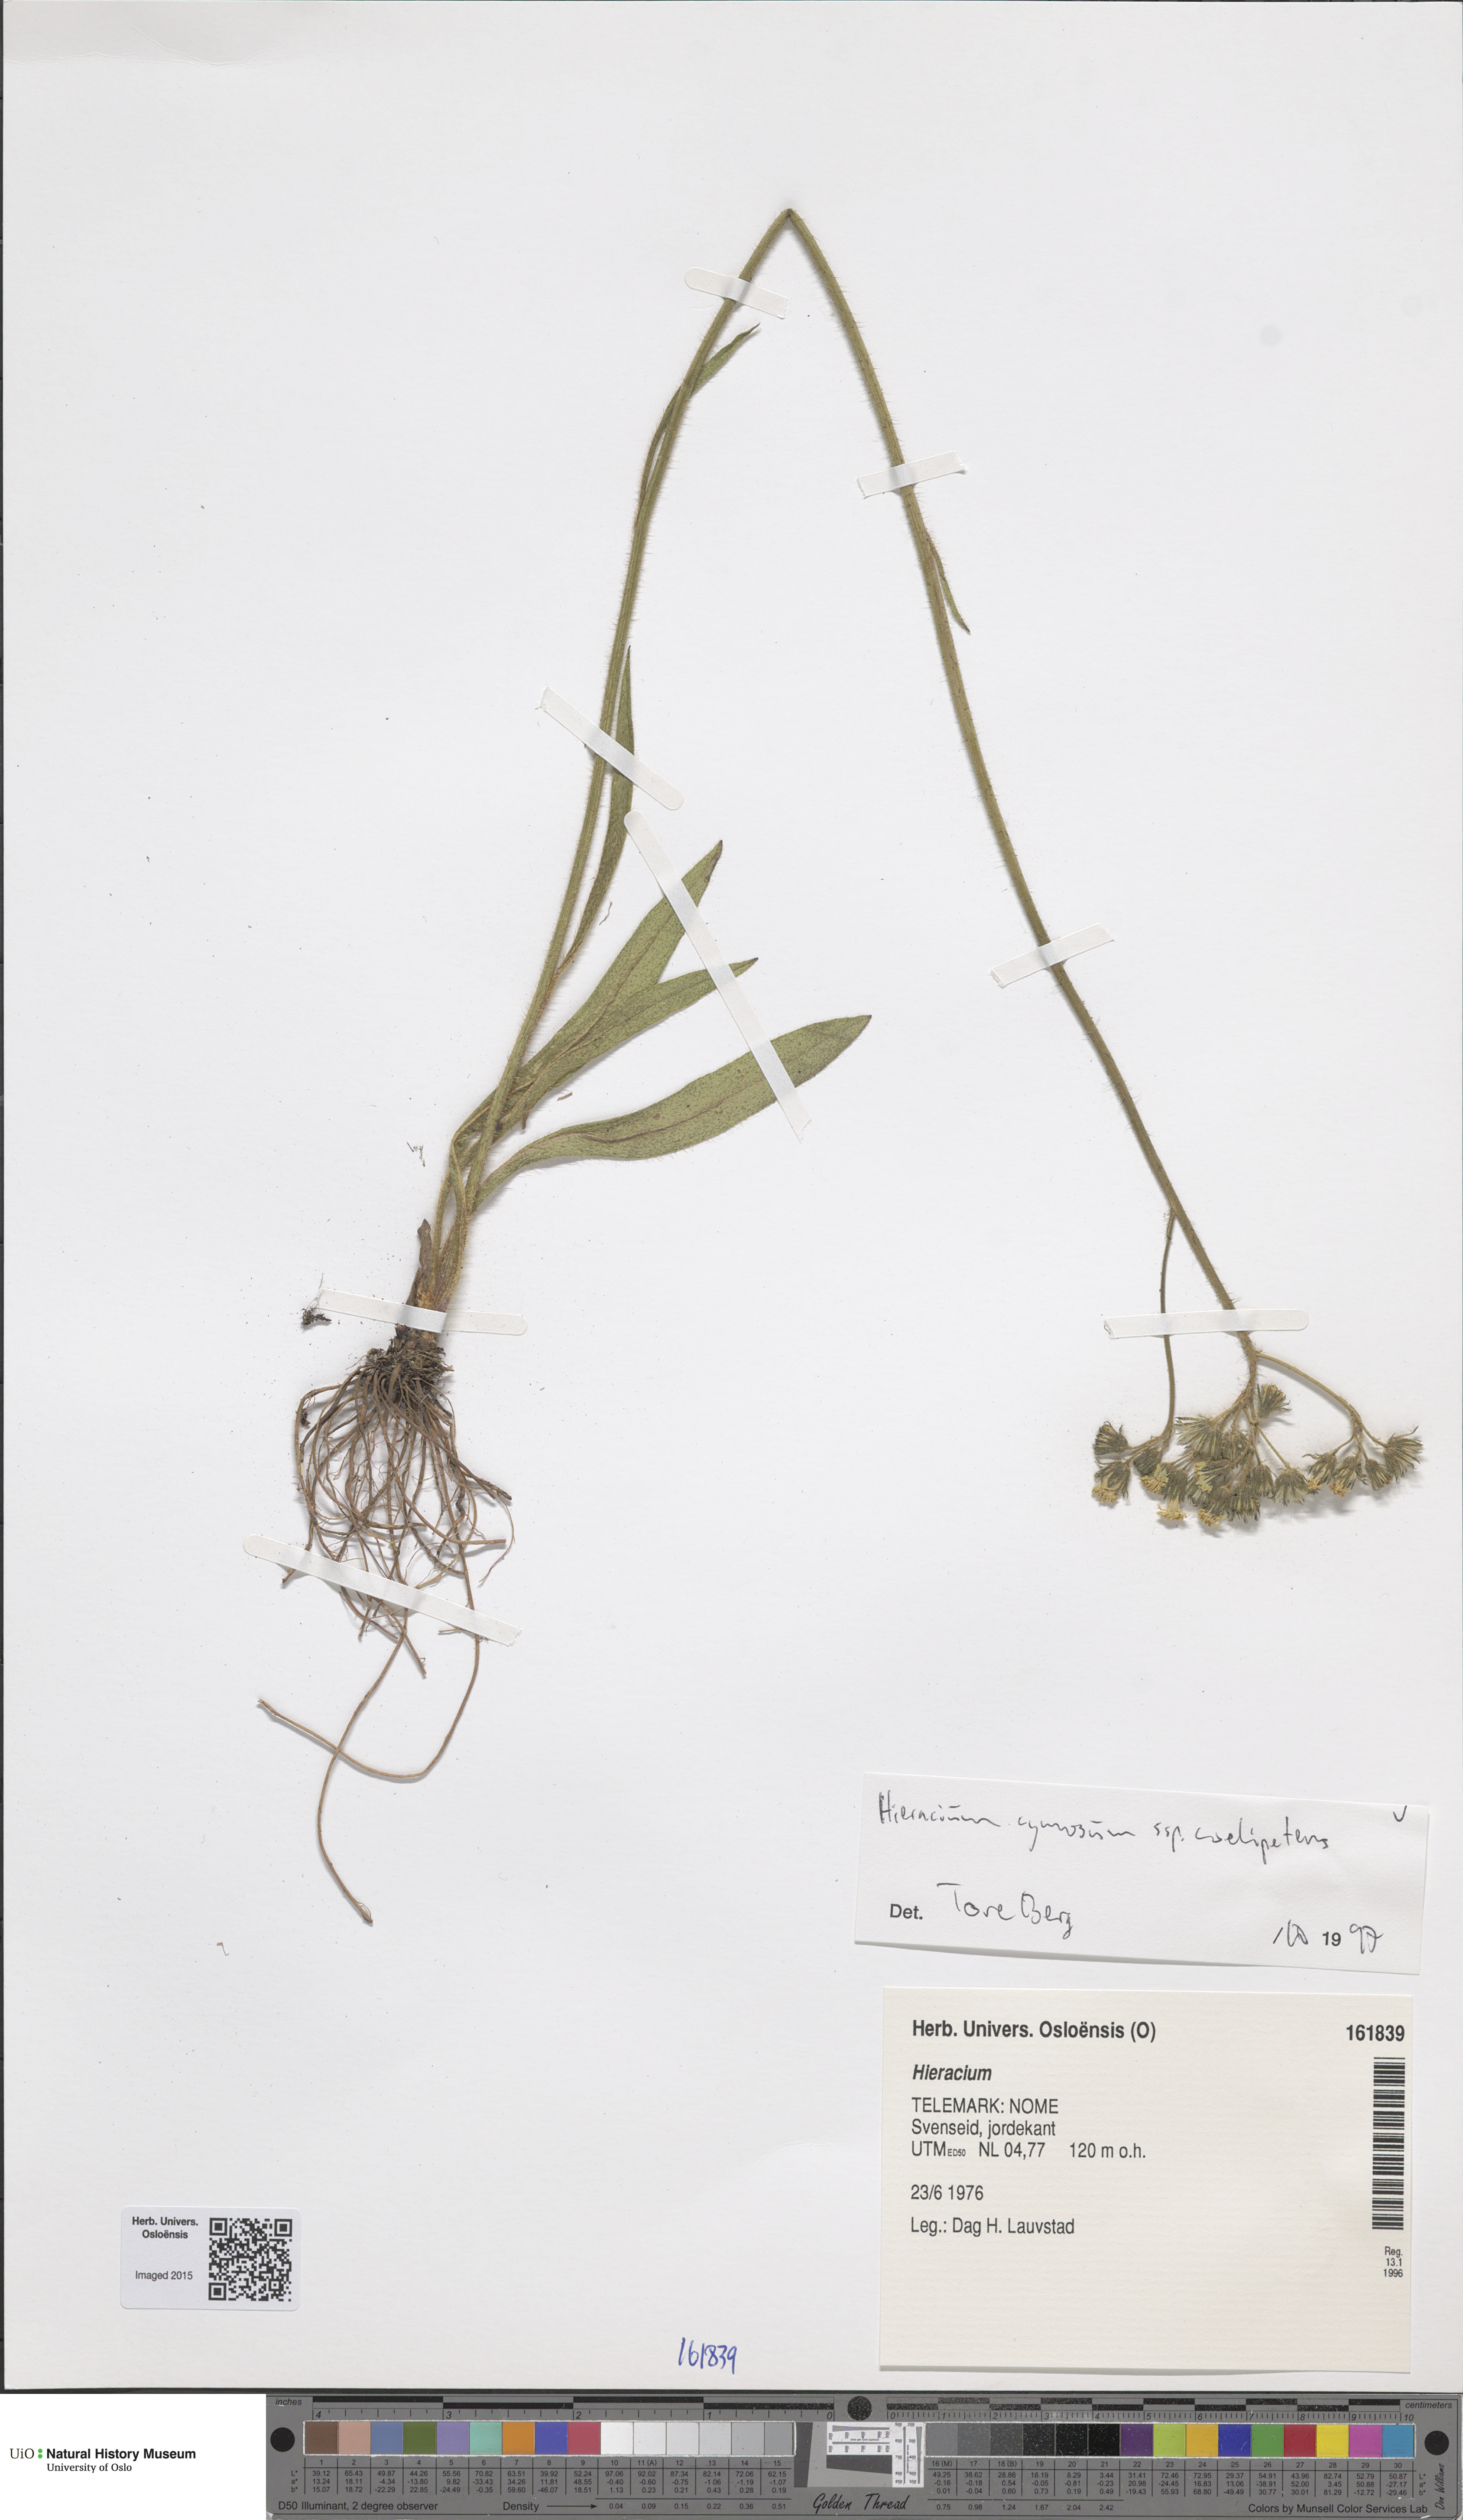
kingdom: Plantae
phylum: Tracheophyta
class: Magnoliopsida
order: Asterales
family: Asteraceae
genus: Pilosella
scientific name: Pilosella cymosa
